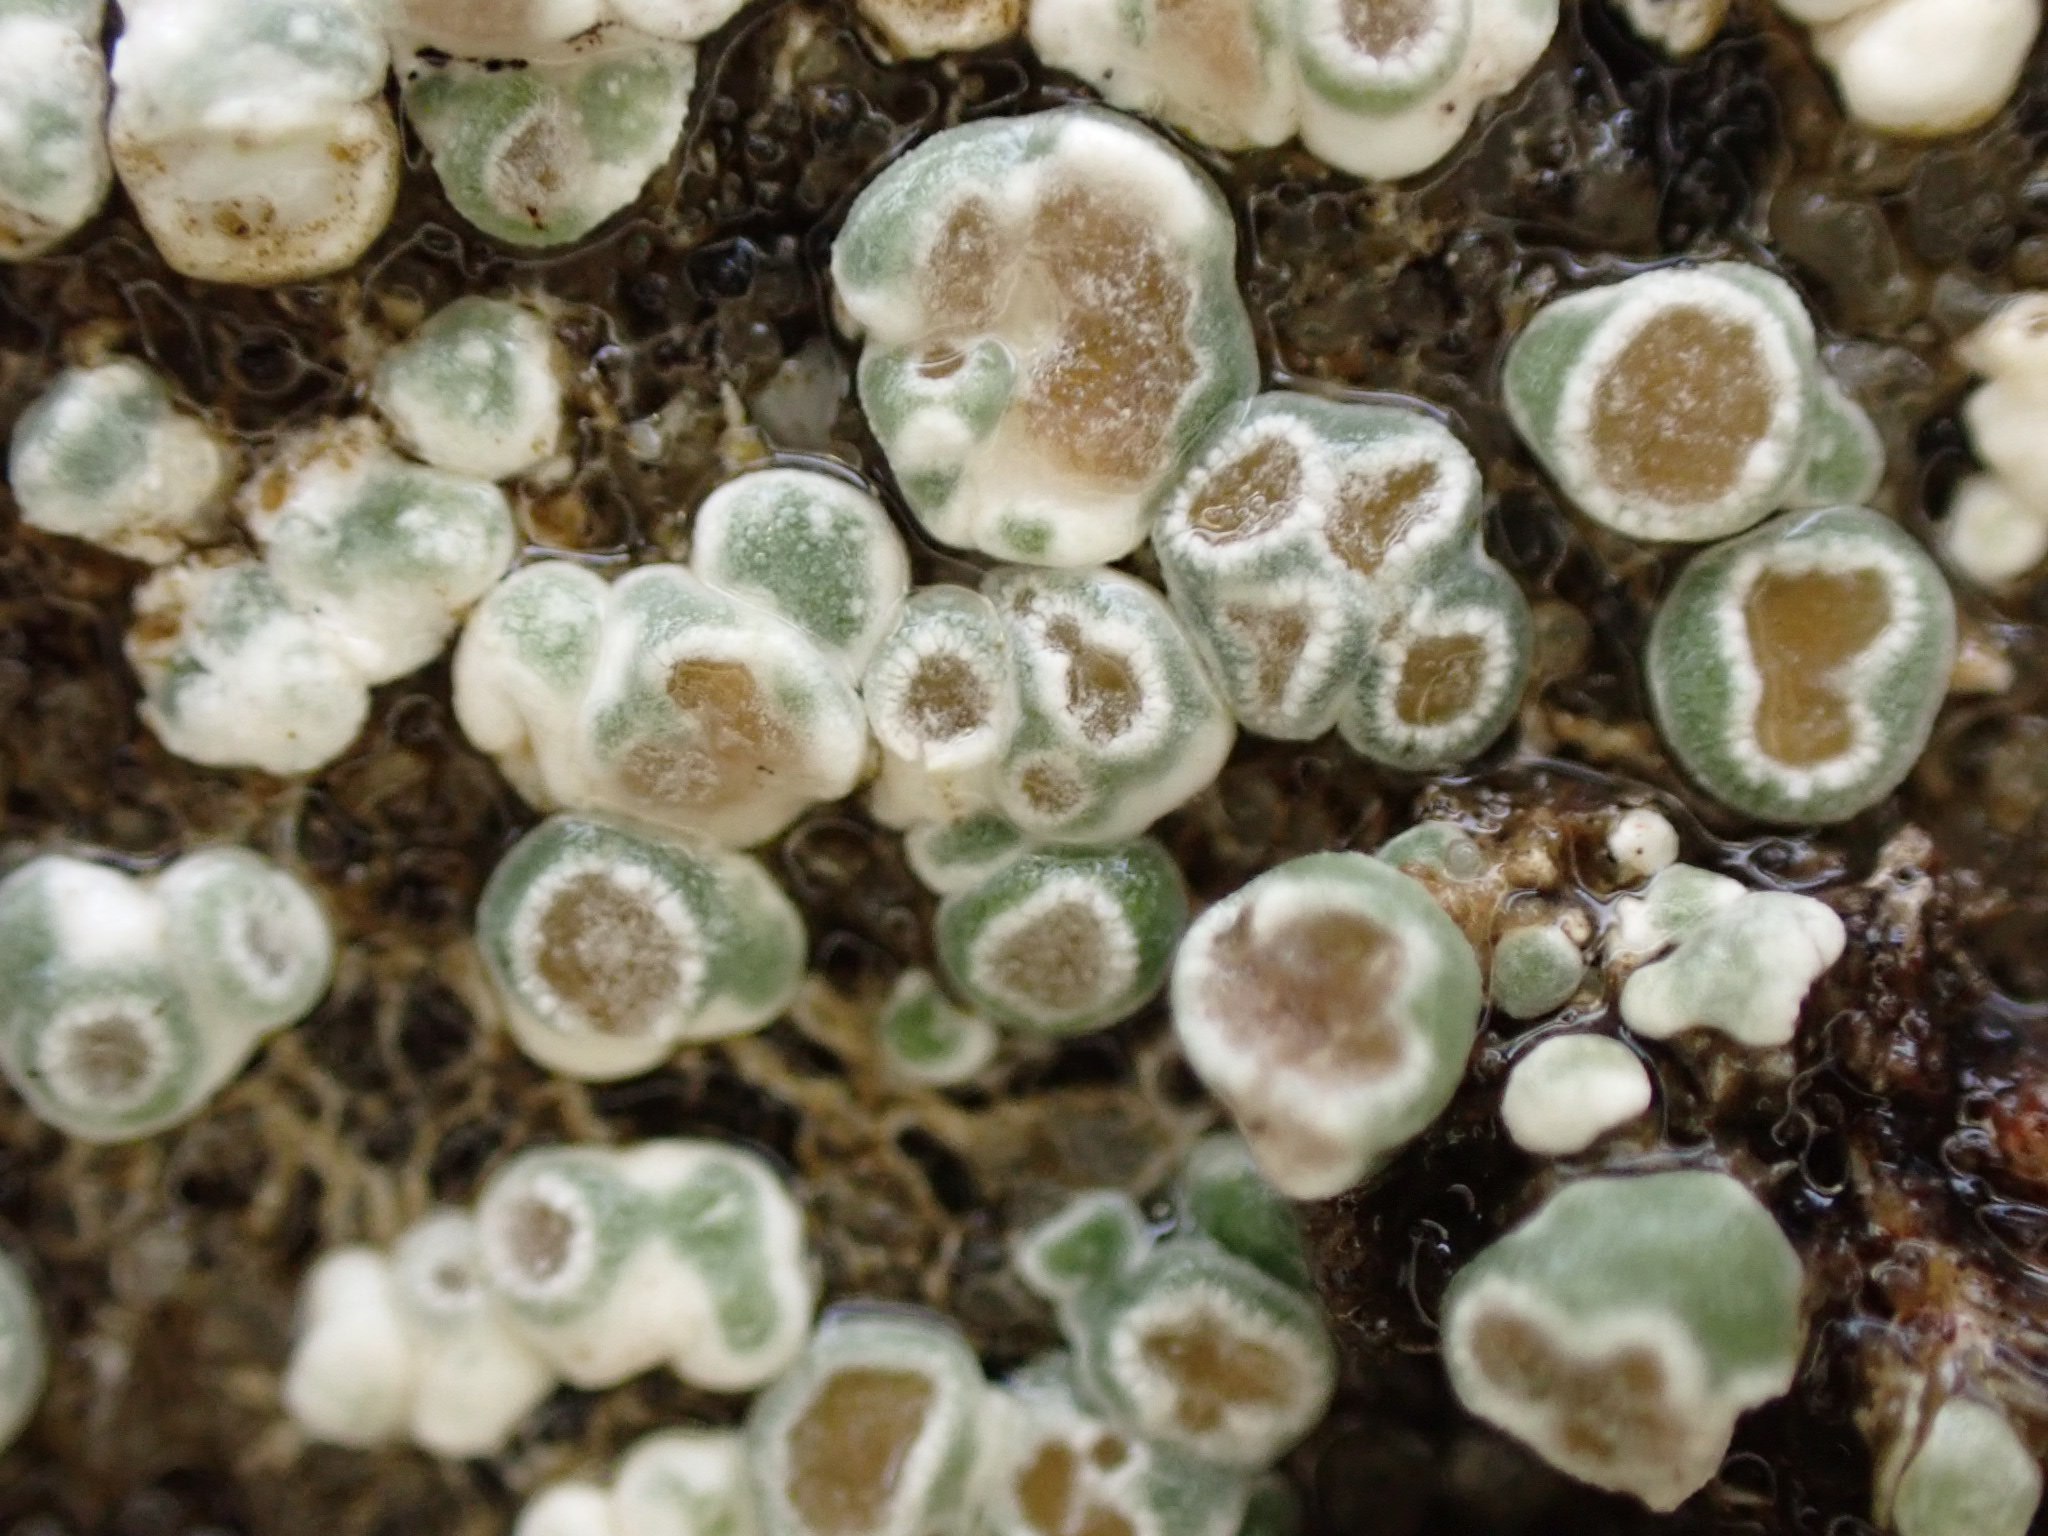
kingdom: Fungi
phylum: Ascomycota
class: Lecanoromycetes
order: Pertusariales
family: Megasporaceae
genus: Circinaria
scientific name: Circinaria contorta
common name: indviklet hulskivelav
